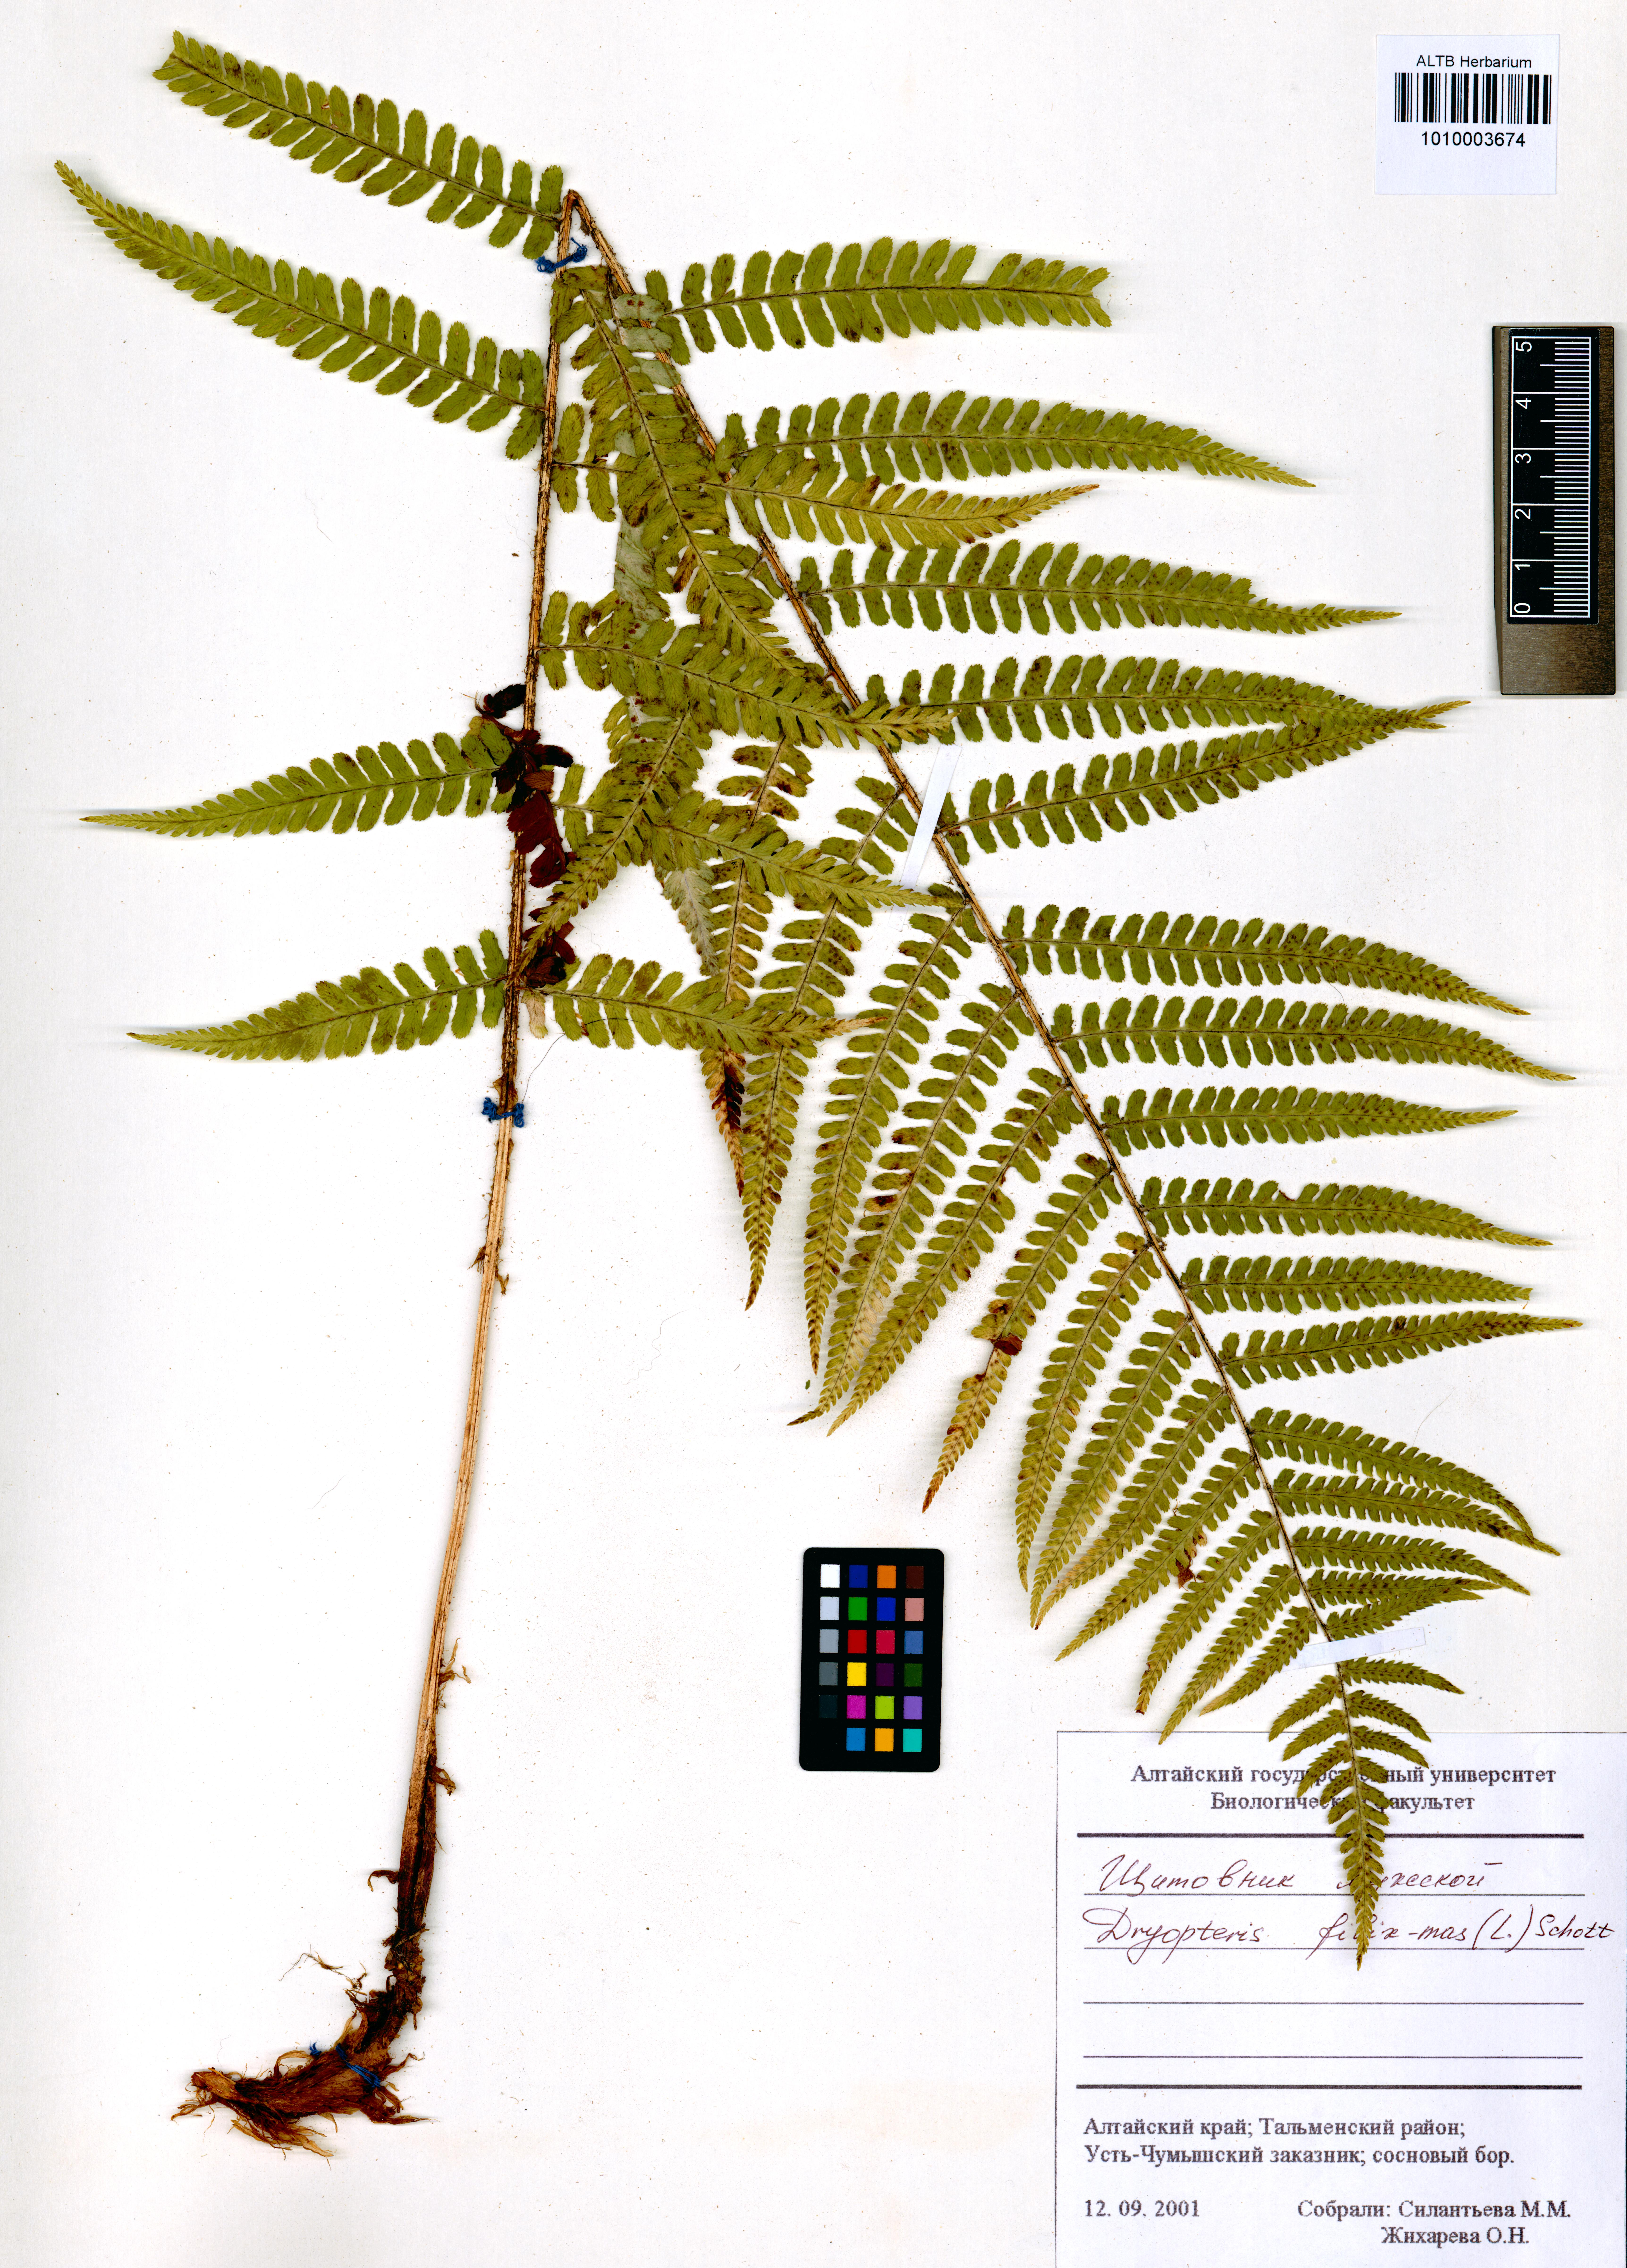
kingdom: Plantae
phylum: Tracheophyta
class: Polypodiopsida
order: Polypodiales
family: Dryopteridaceae
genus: Dryopteris
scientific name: Dryopteris filix-mas
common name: Male fern
